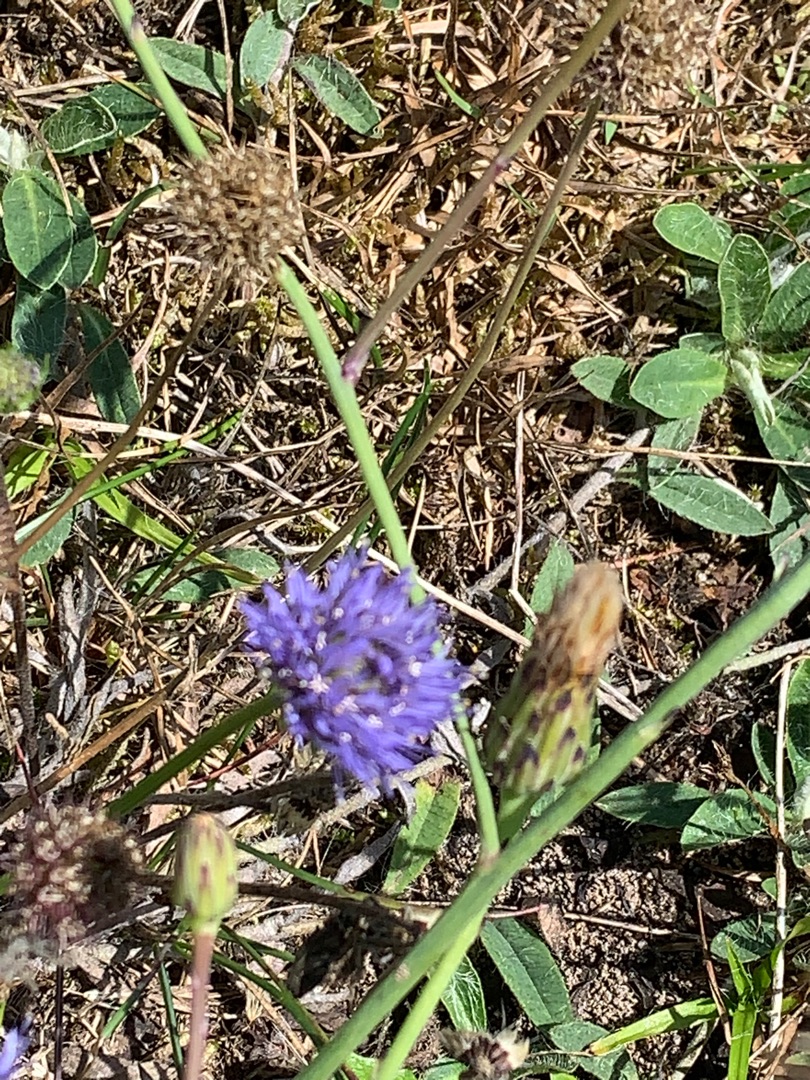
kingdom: Plantae
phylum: Tracheophyta
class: Magnoliopsida
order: Asterales
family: Campanulaceae
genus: Jasione
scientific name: Jasione montana
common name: Blåmunke
